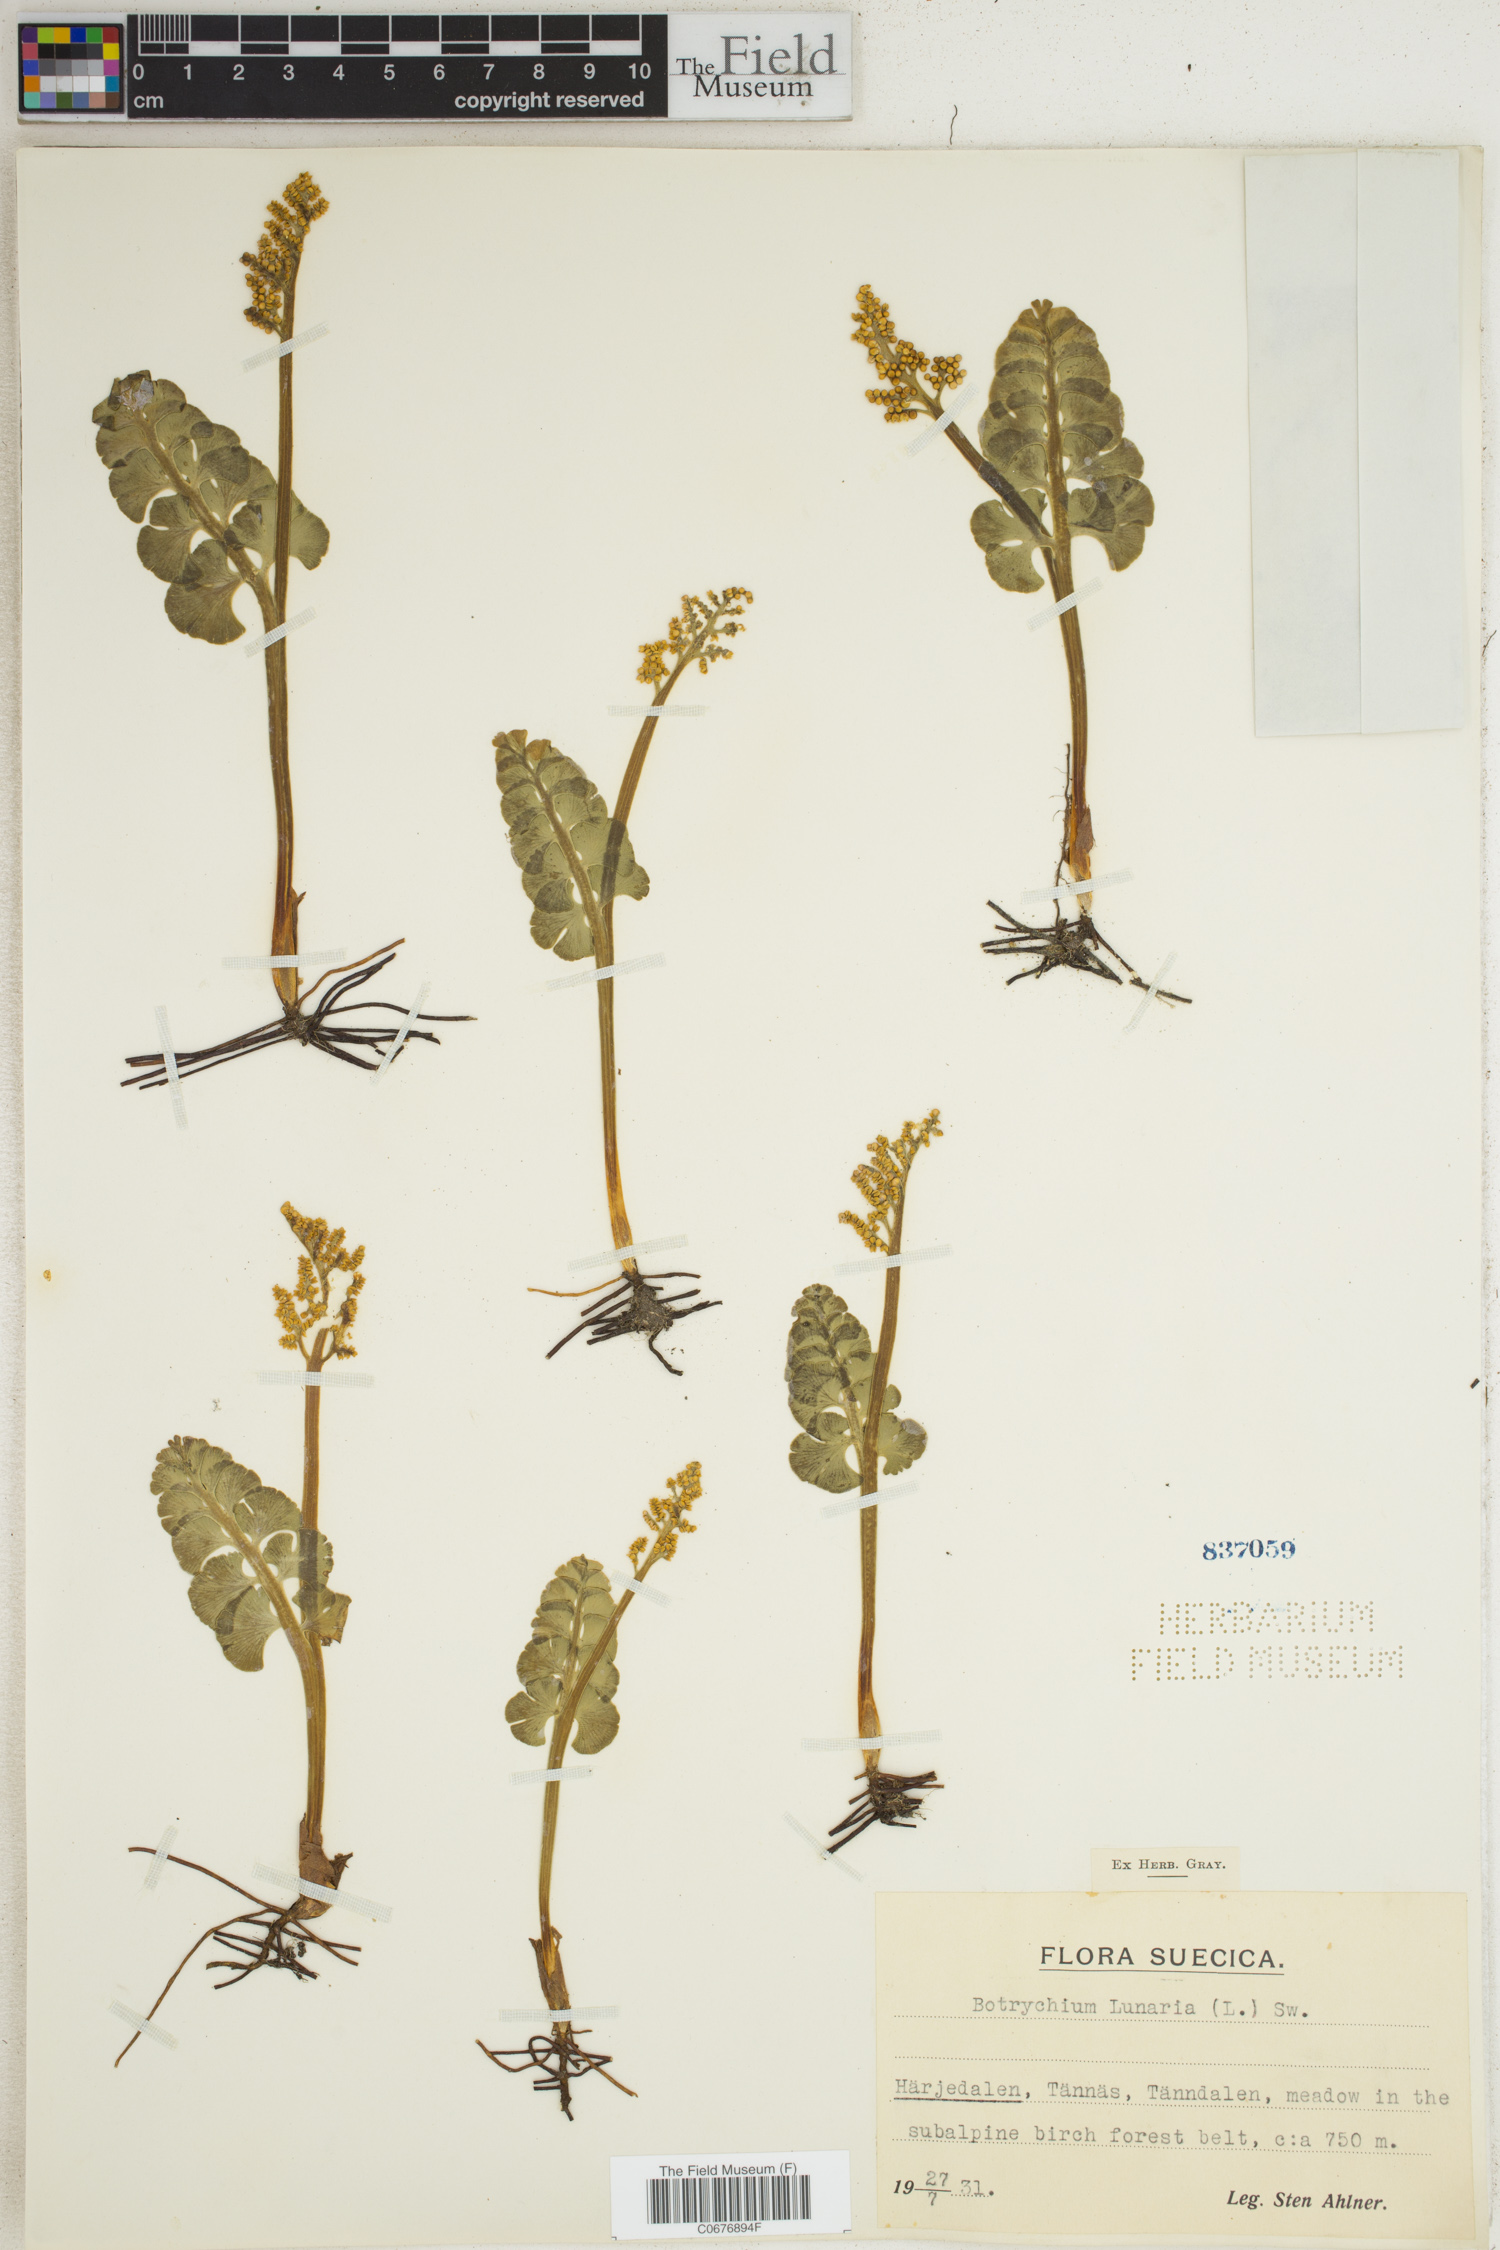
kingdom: Plantae
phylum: Tracheophyta
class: Polypodiopsida
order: Ophioglossales
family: Ophioglossaceae
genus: Botrychium
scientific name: Botrychium lunaria
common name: Moonwort
